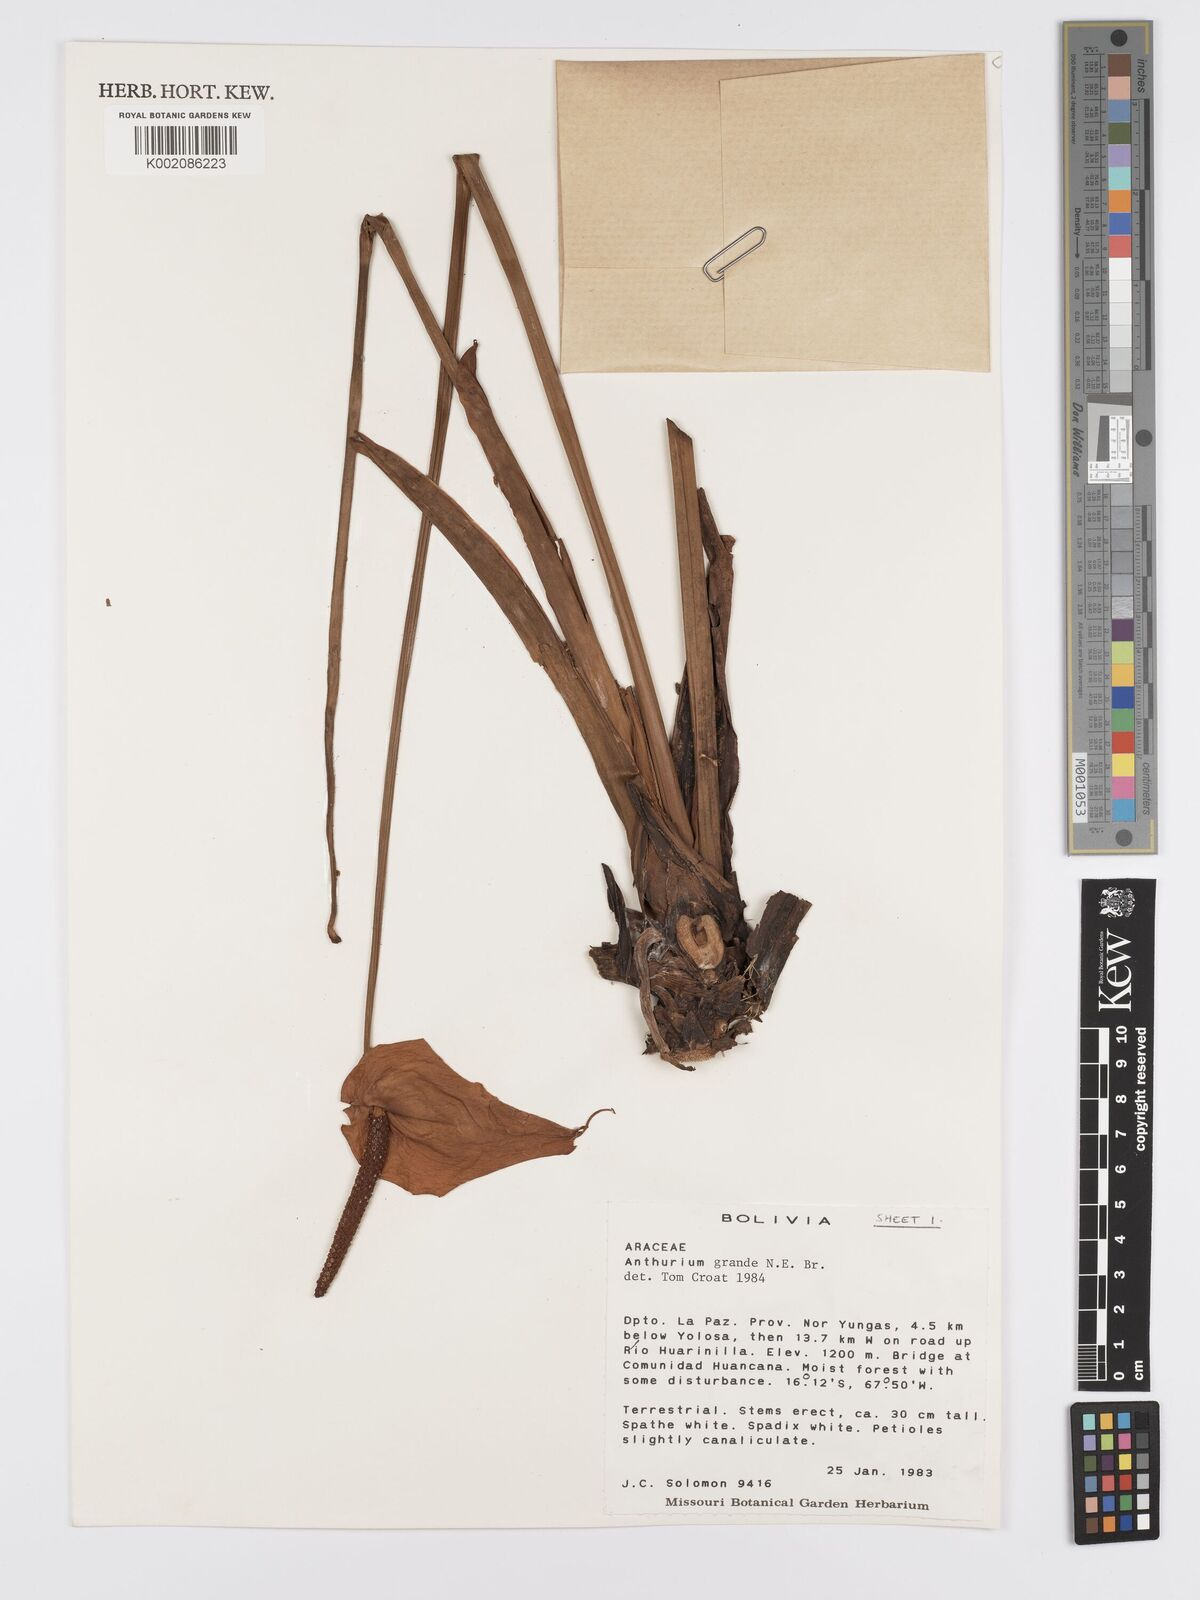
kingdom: Plantae
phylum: Tracheophyta
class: Liliopsida
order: Alismatales
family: Araceae
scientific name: Araceae
